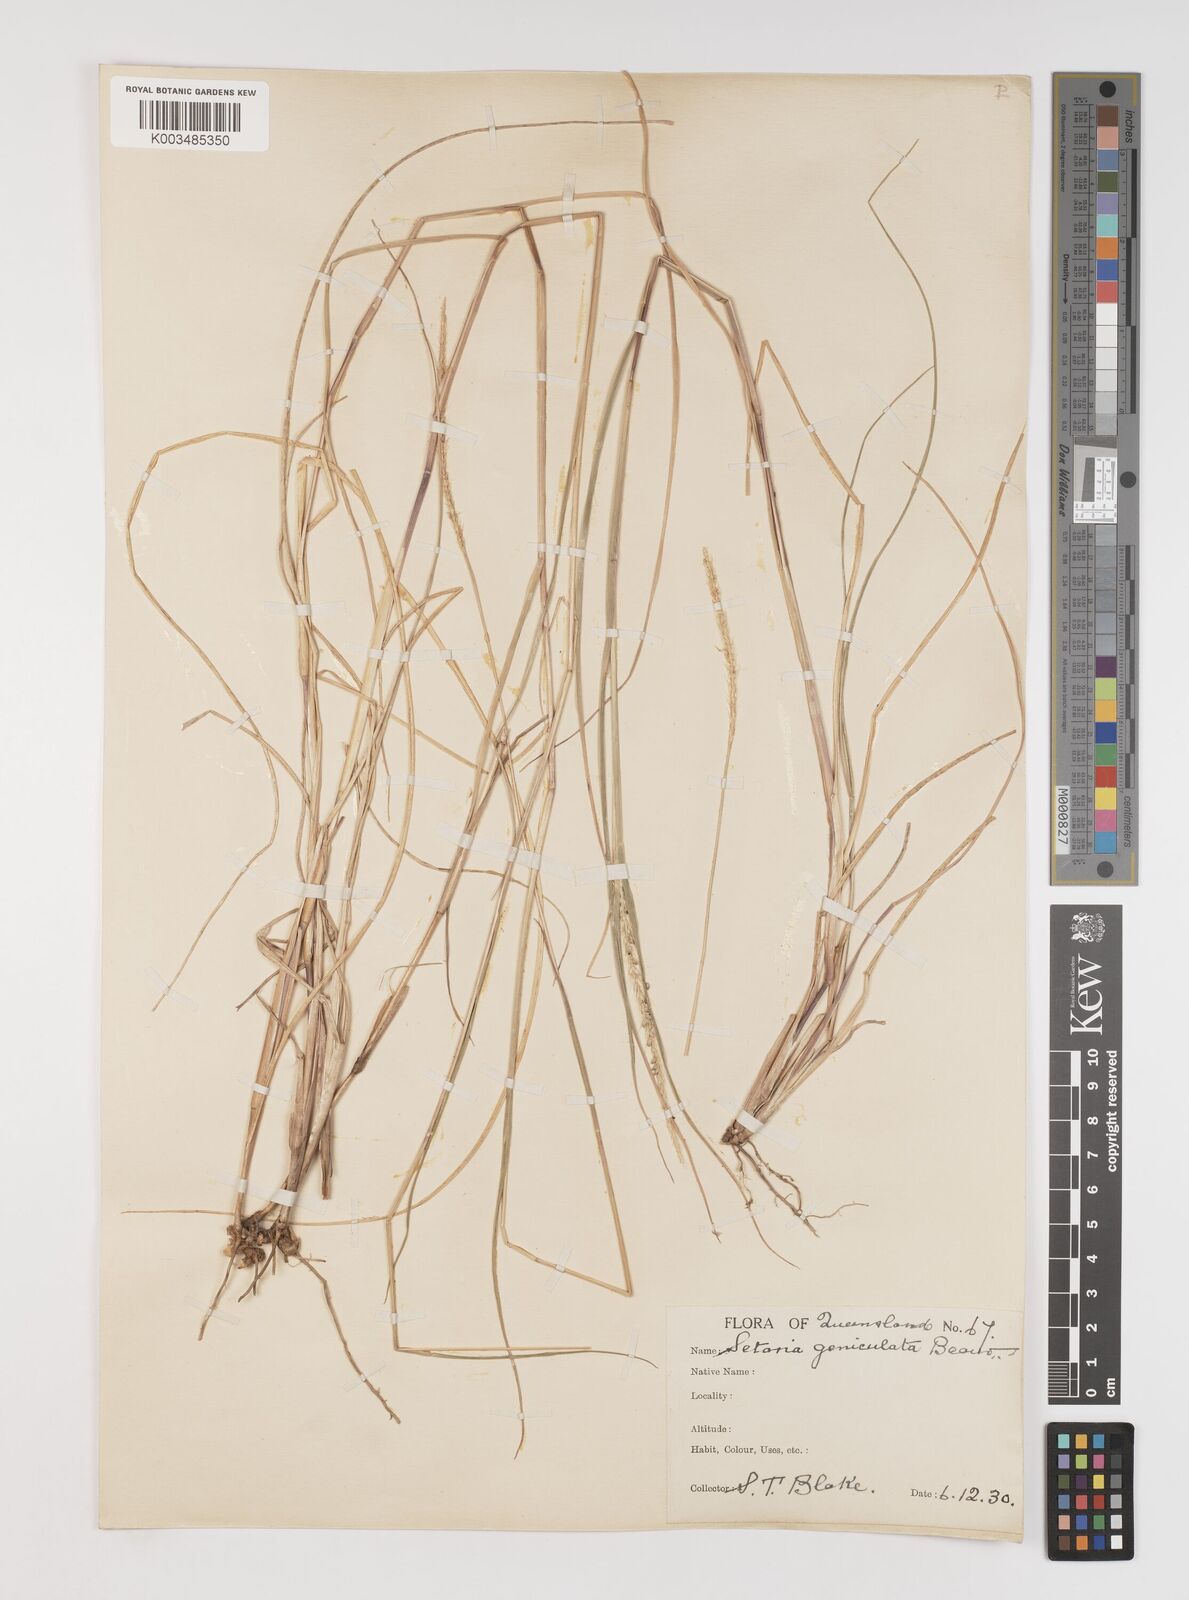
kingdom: Plantae
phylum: Tracheophyta
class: Liliopsida
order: Poales
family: Poaceae
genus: Setaria
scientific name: Setaria parviflora
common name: Knotroot bristle-grass
